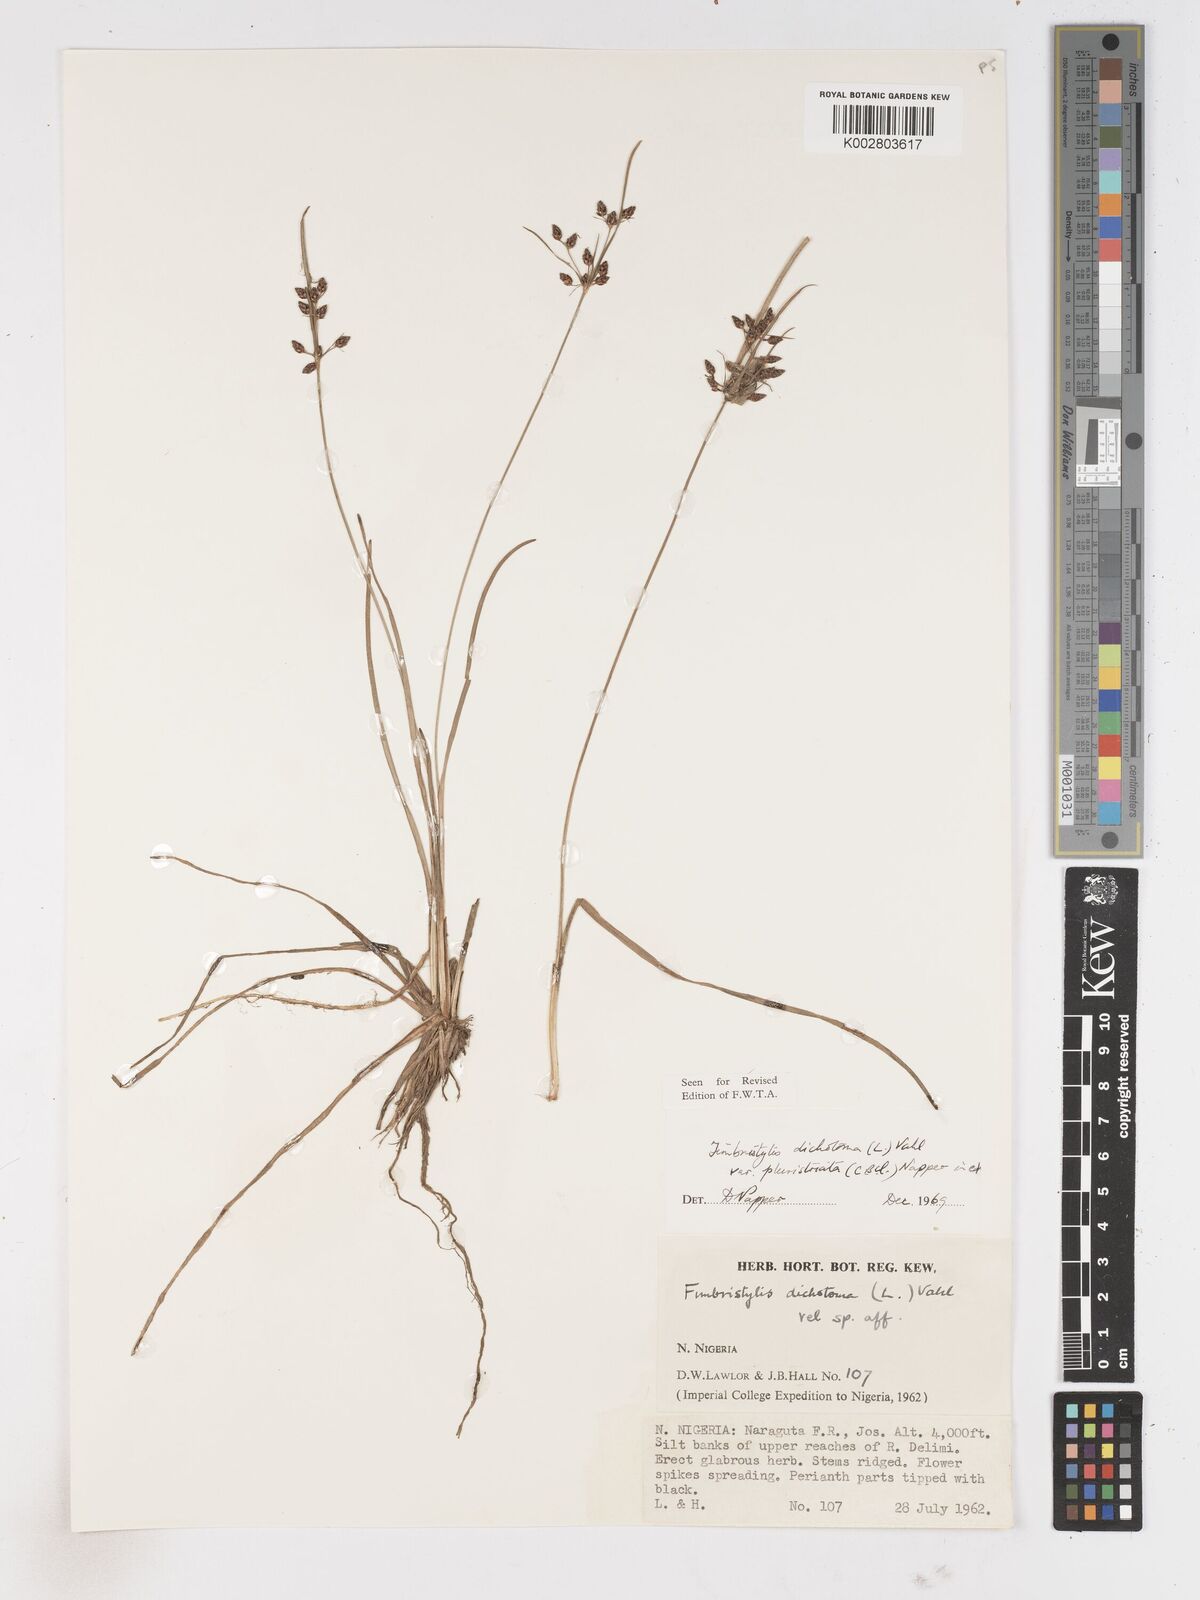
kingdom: Plantae
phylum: Tracheophyta
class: Liliopsida
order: Poales
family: Cyperaceae
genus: Fimbristylis
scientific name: Fimbristylis dichotoma
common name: Forked fimbry
